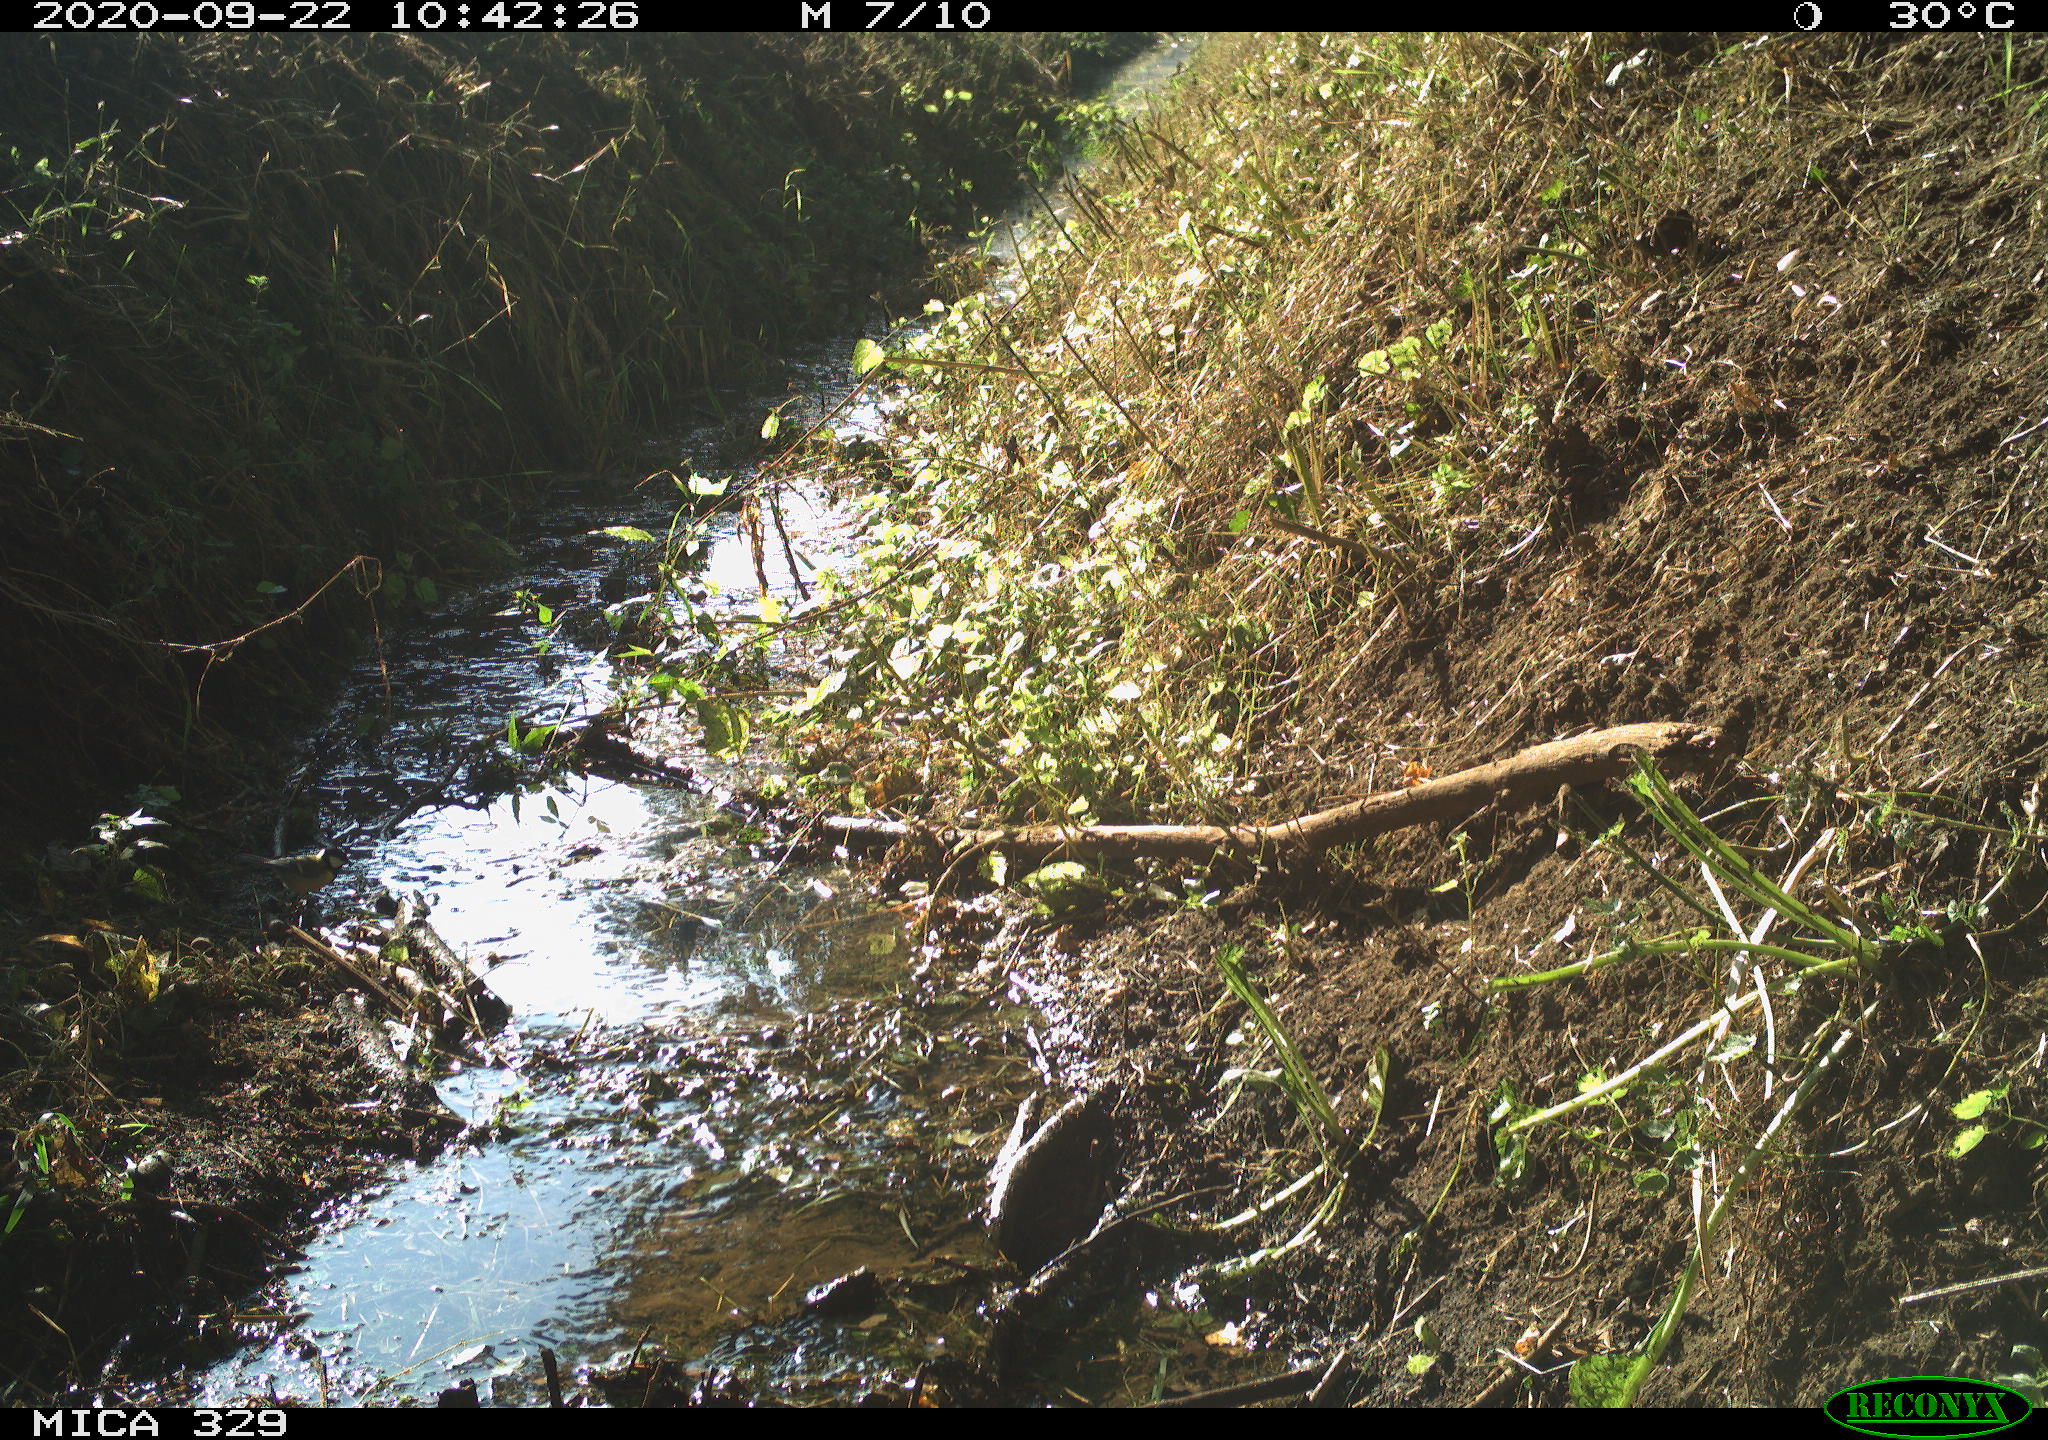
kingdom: Animalia
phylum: Chordata
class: Aves
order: Passeriformes
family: Paridae
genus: Parus
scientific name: Parus major
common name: Great tit
